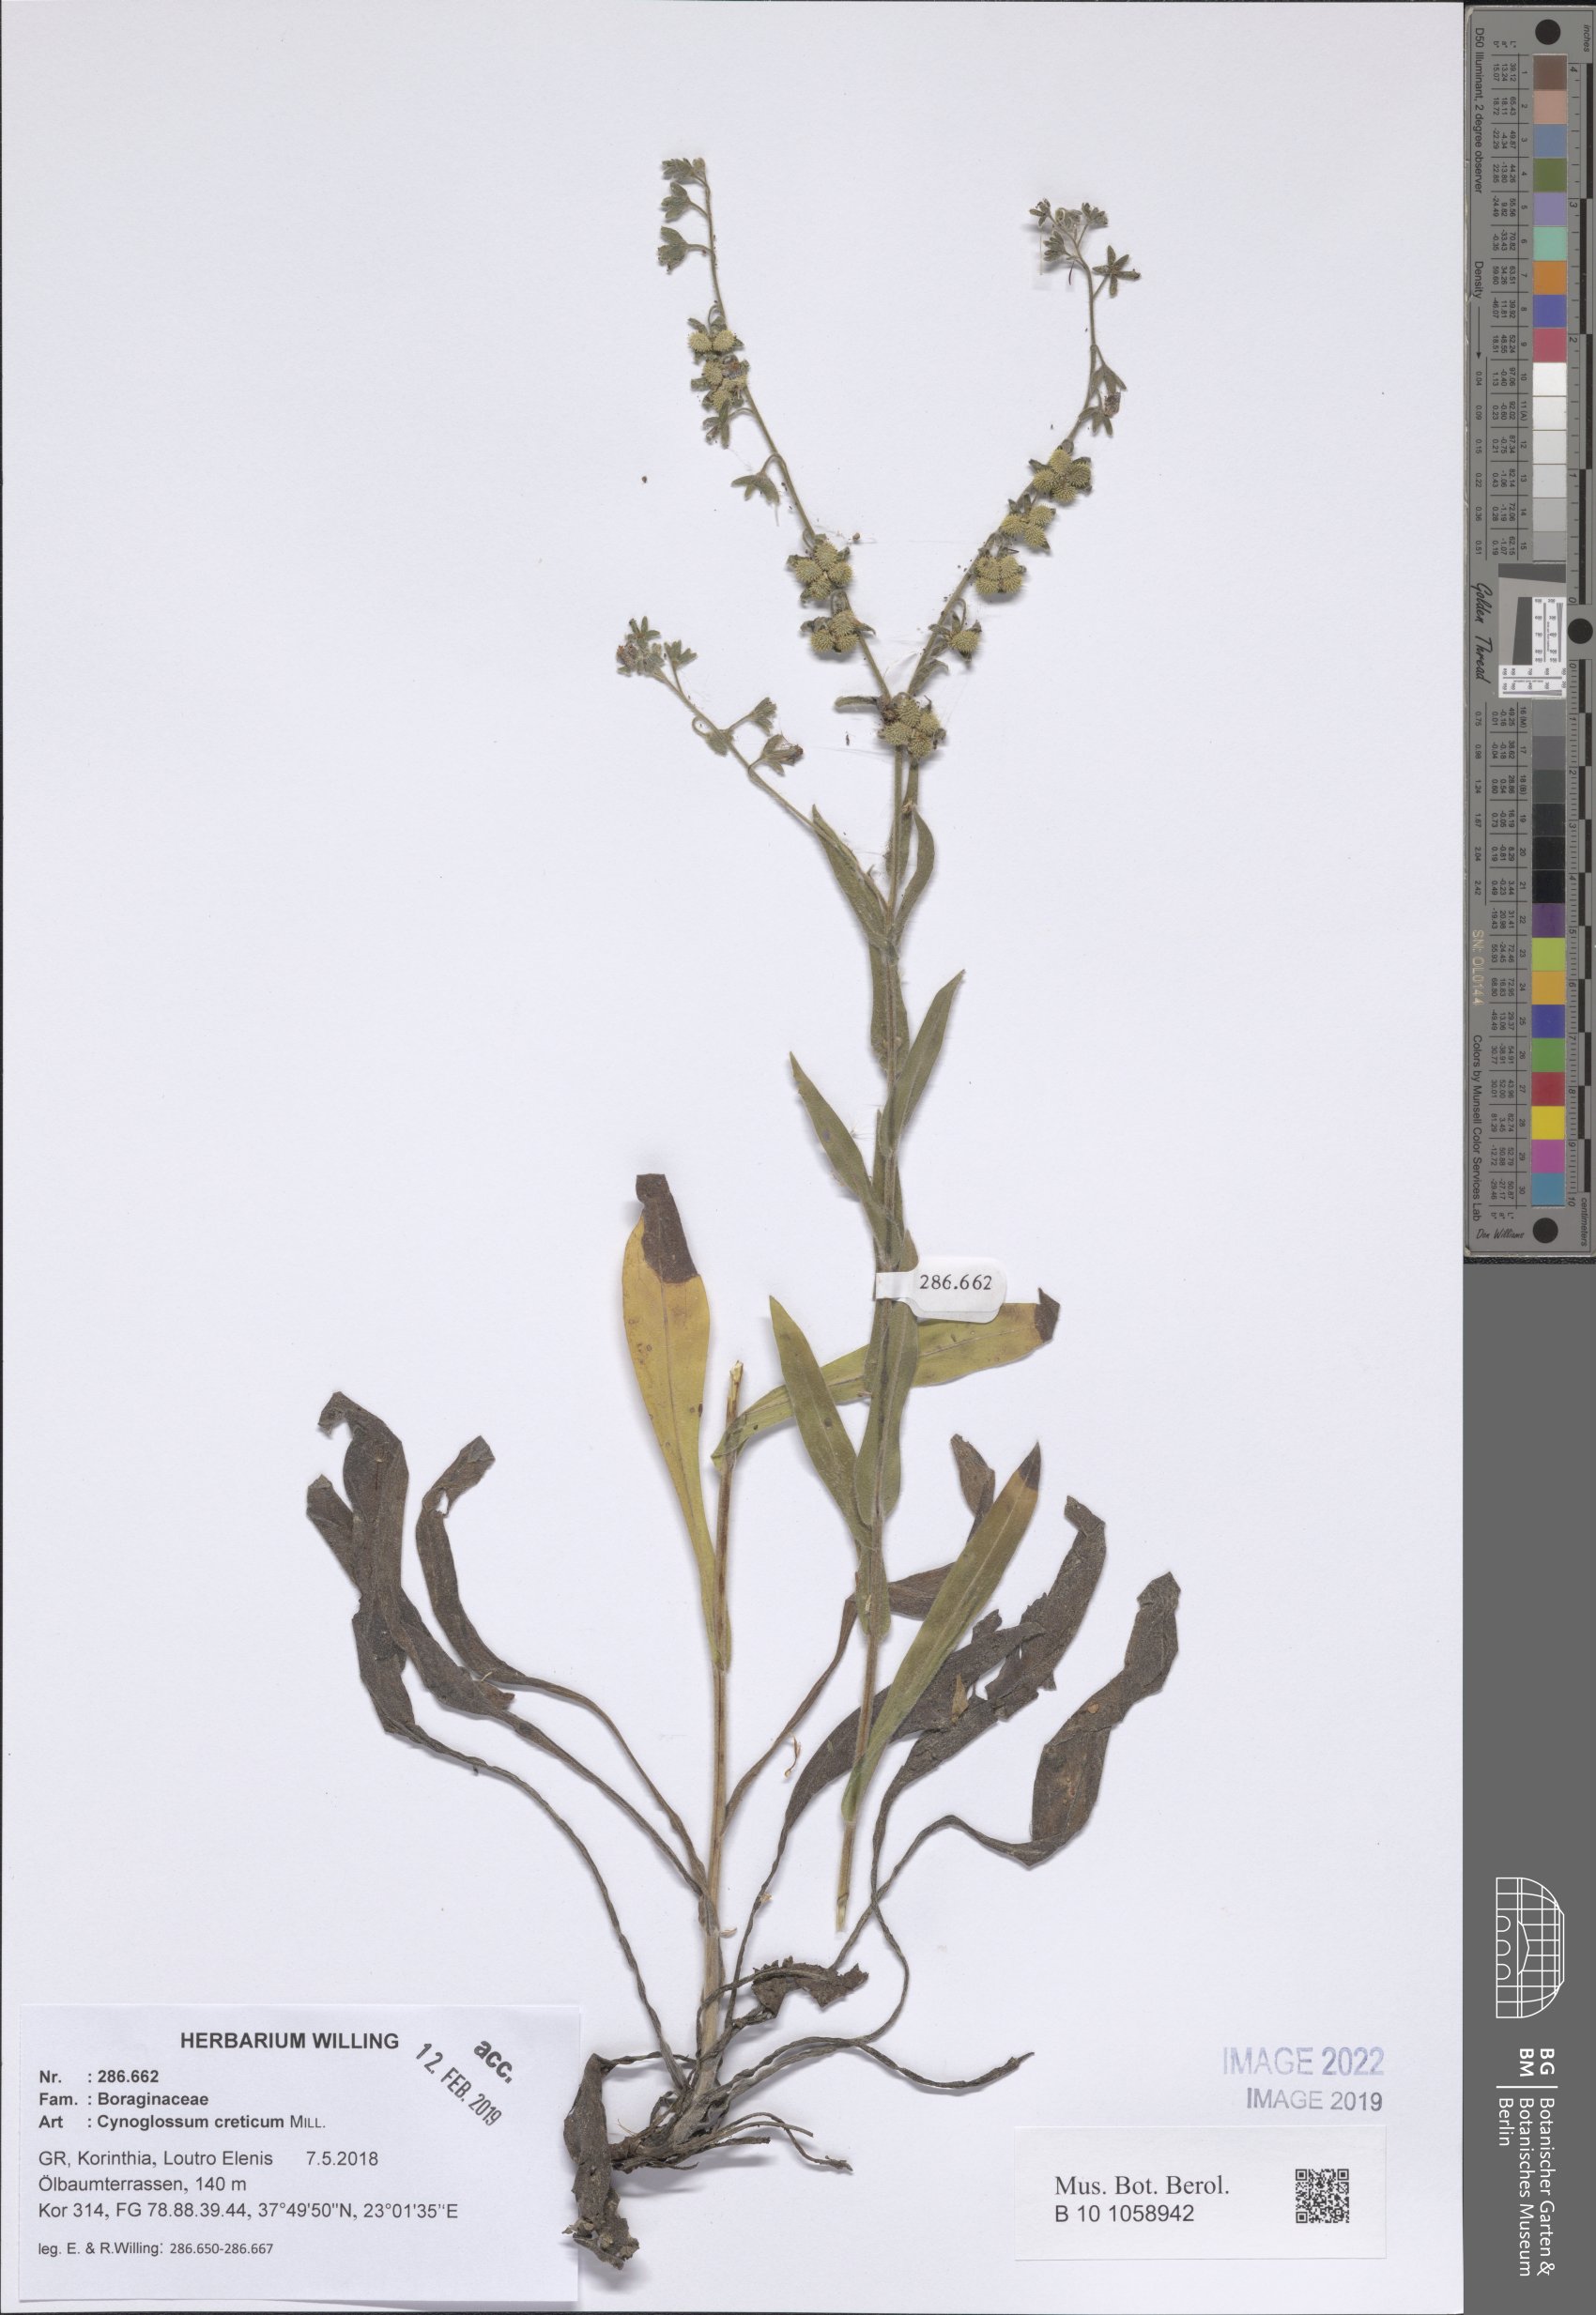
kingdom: Plantae
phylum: Tracheophyta
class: Magnoliopsida
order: Boraginales
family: Boraginaceae
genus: Cynoglossum
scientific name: Cynoglossum creticum
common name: Blue hound's tongue
